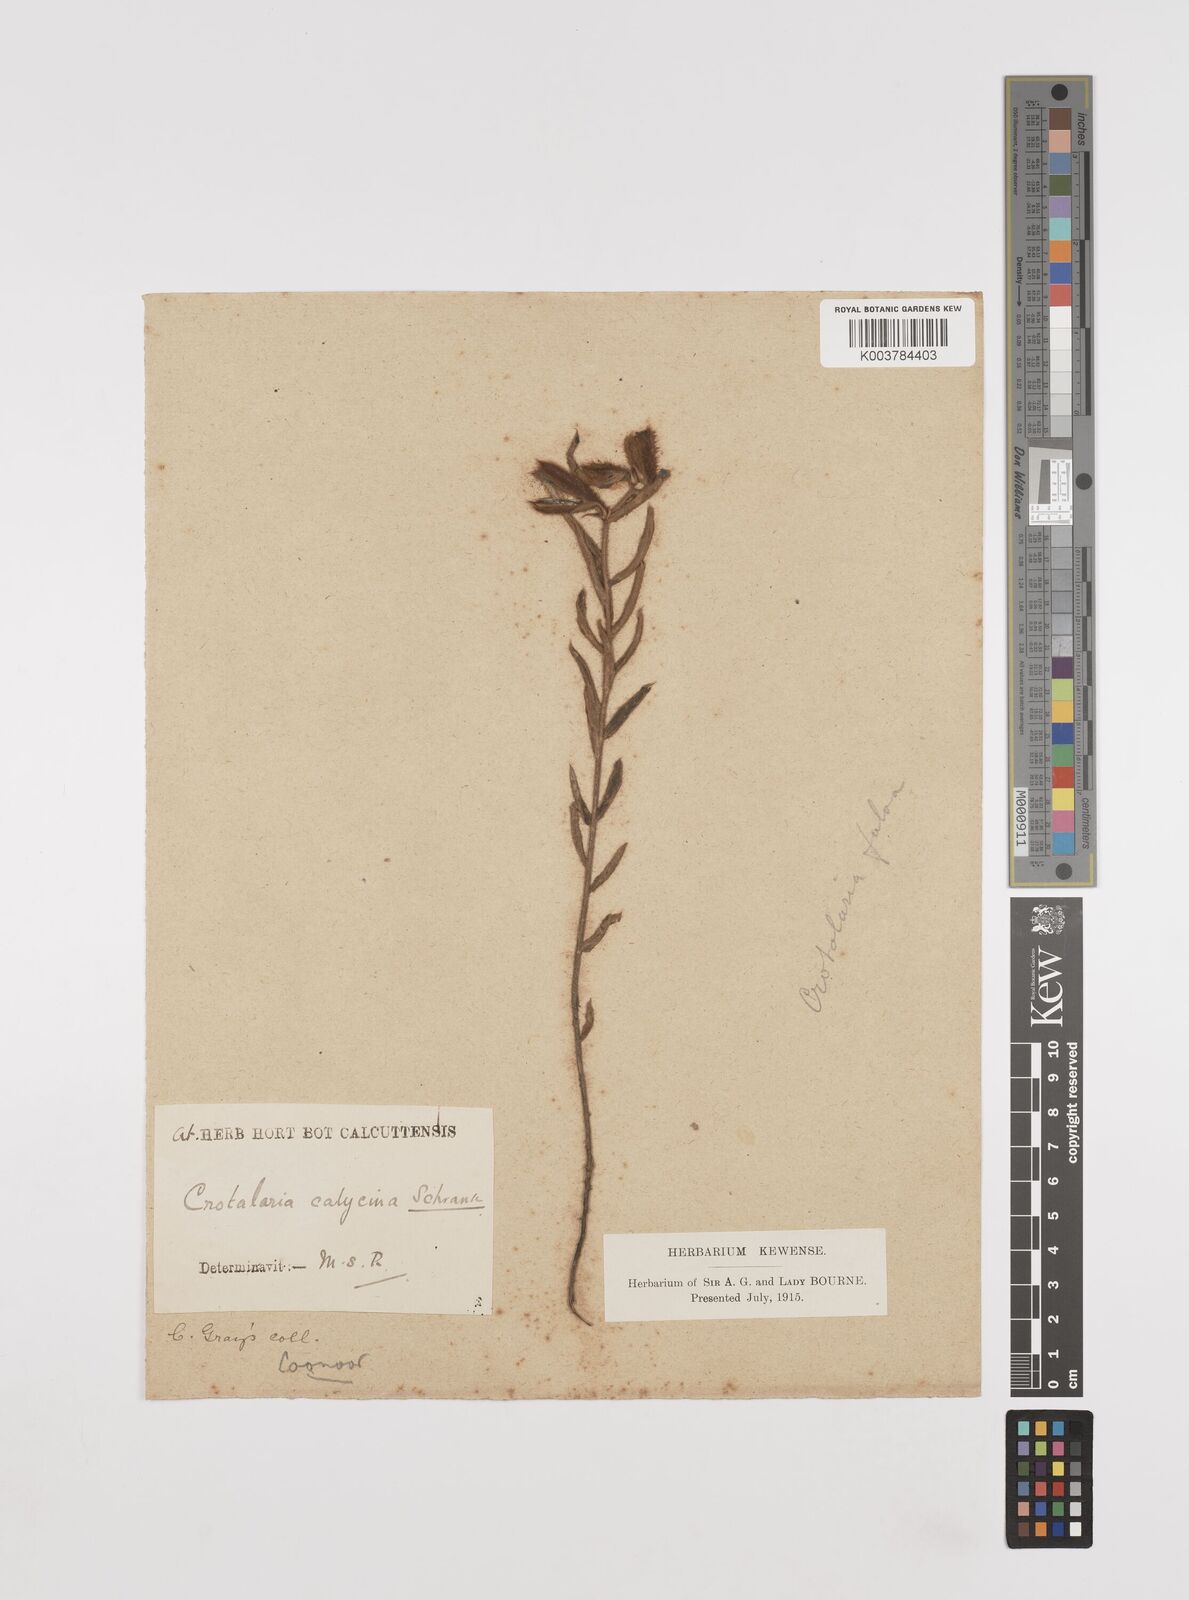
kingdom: Plantae
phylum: Tracheophyta
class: Magnoliopsida
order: Fabales
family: Fabaceae
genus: Crotalaria
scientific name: Crotalaria calycina
